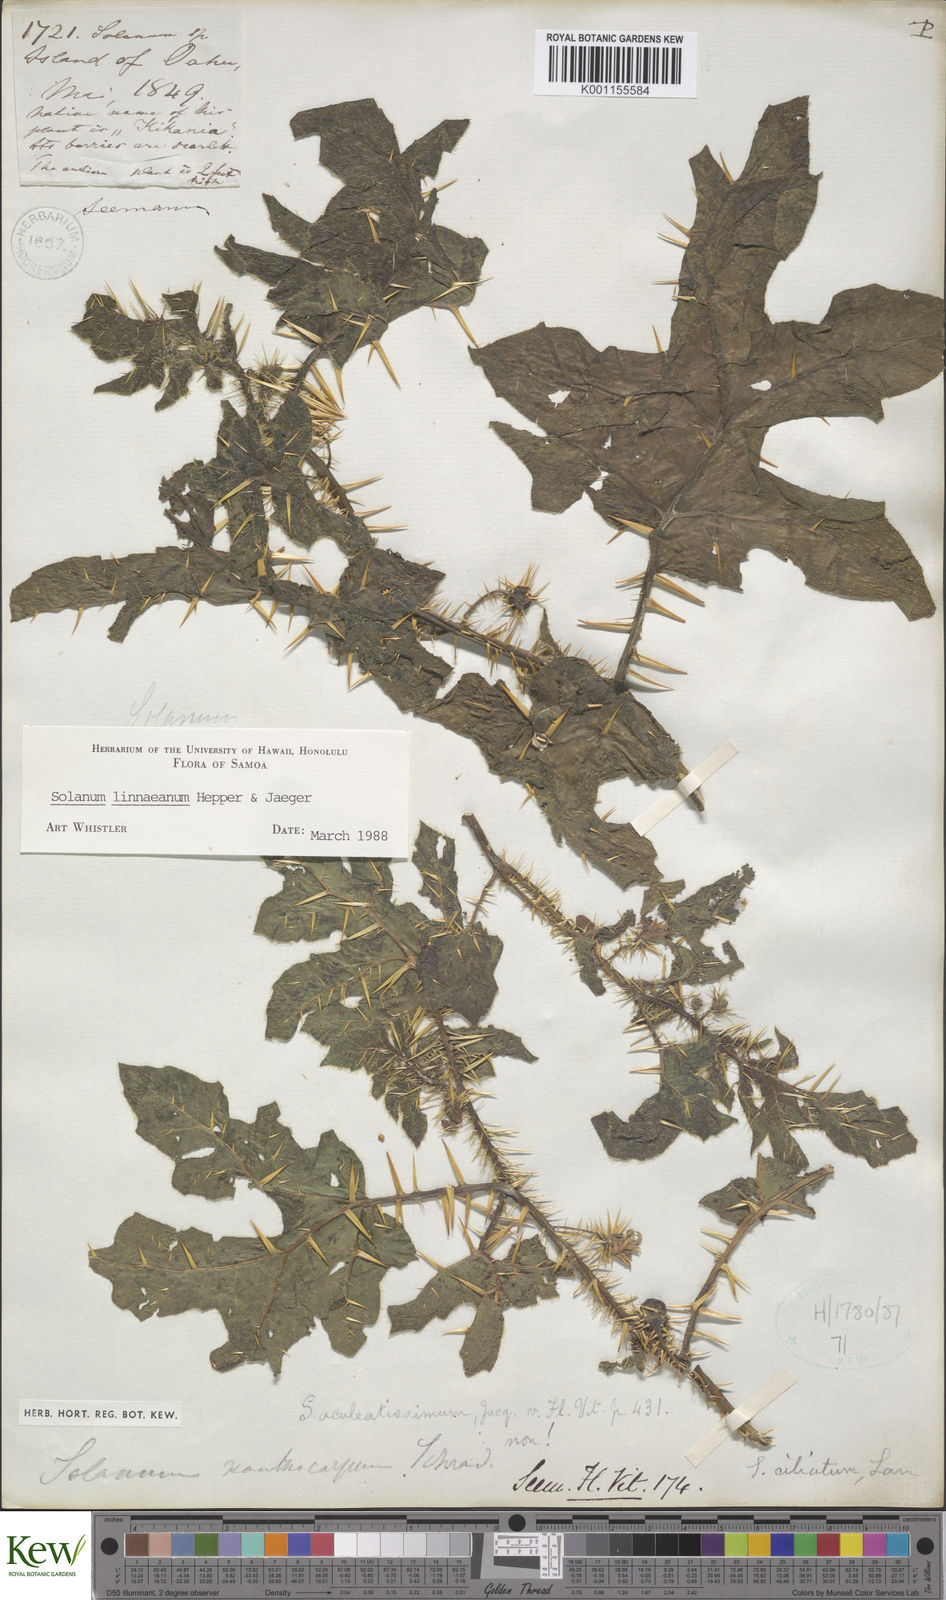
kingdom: Plantae
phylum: Tracheophyta
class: Magnoliopsida
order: Solanales
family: Solanaceae
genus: Solanum
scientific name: Solanum linnaeanum
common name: Nightshade
